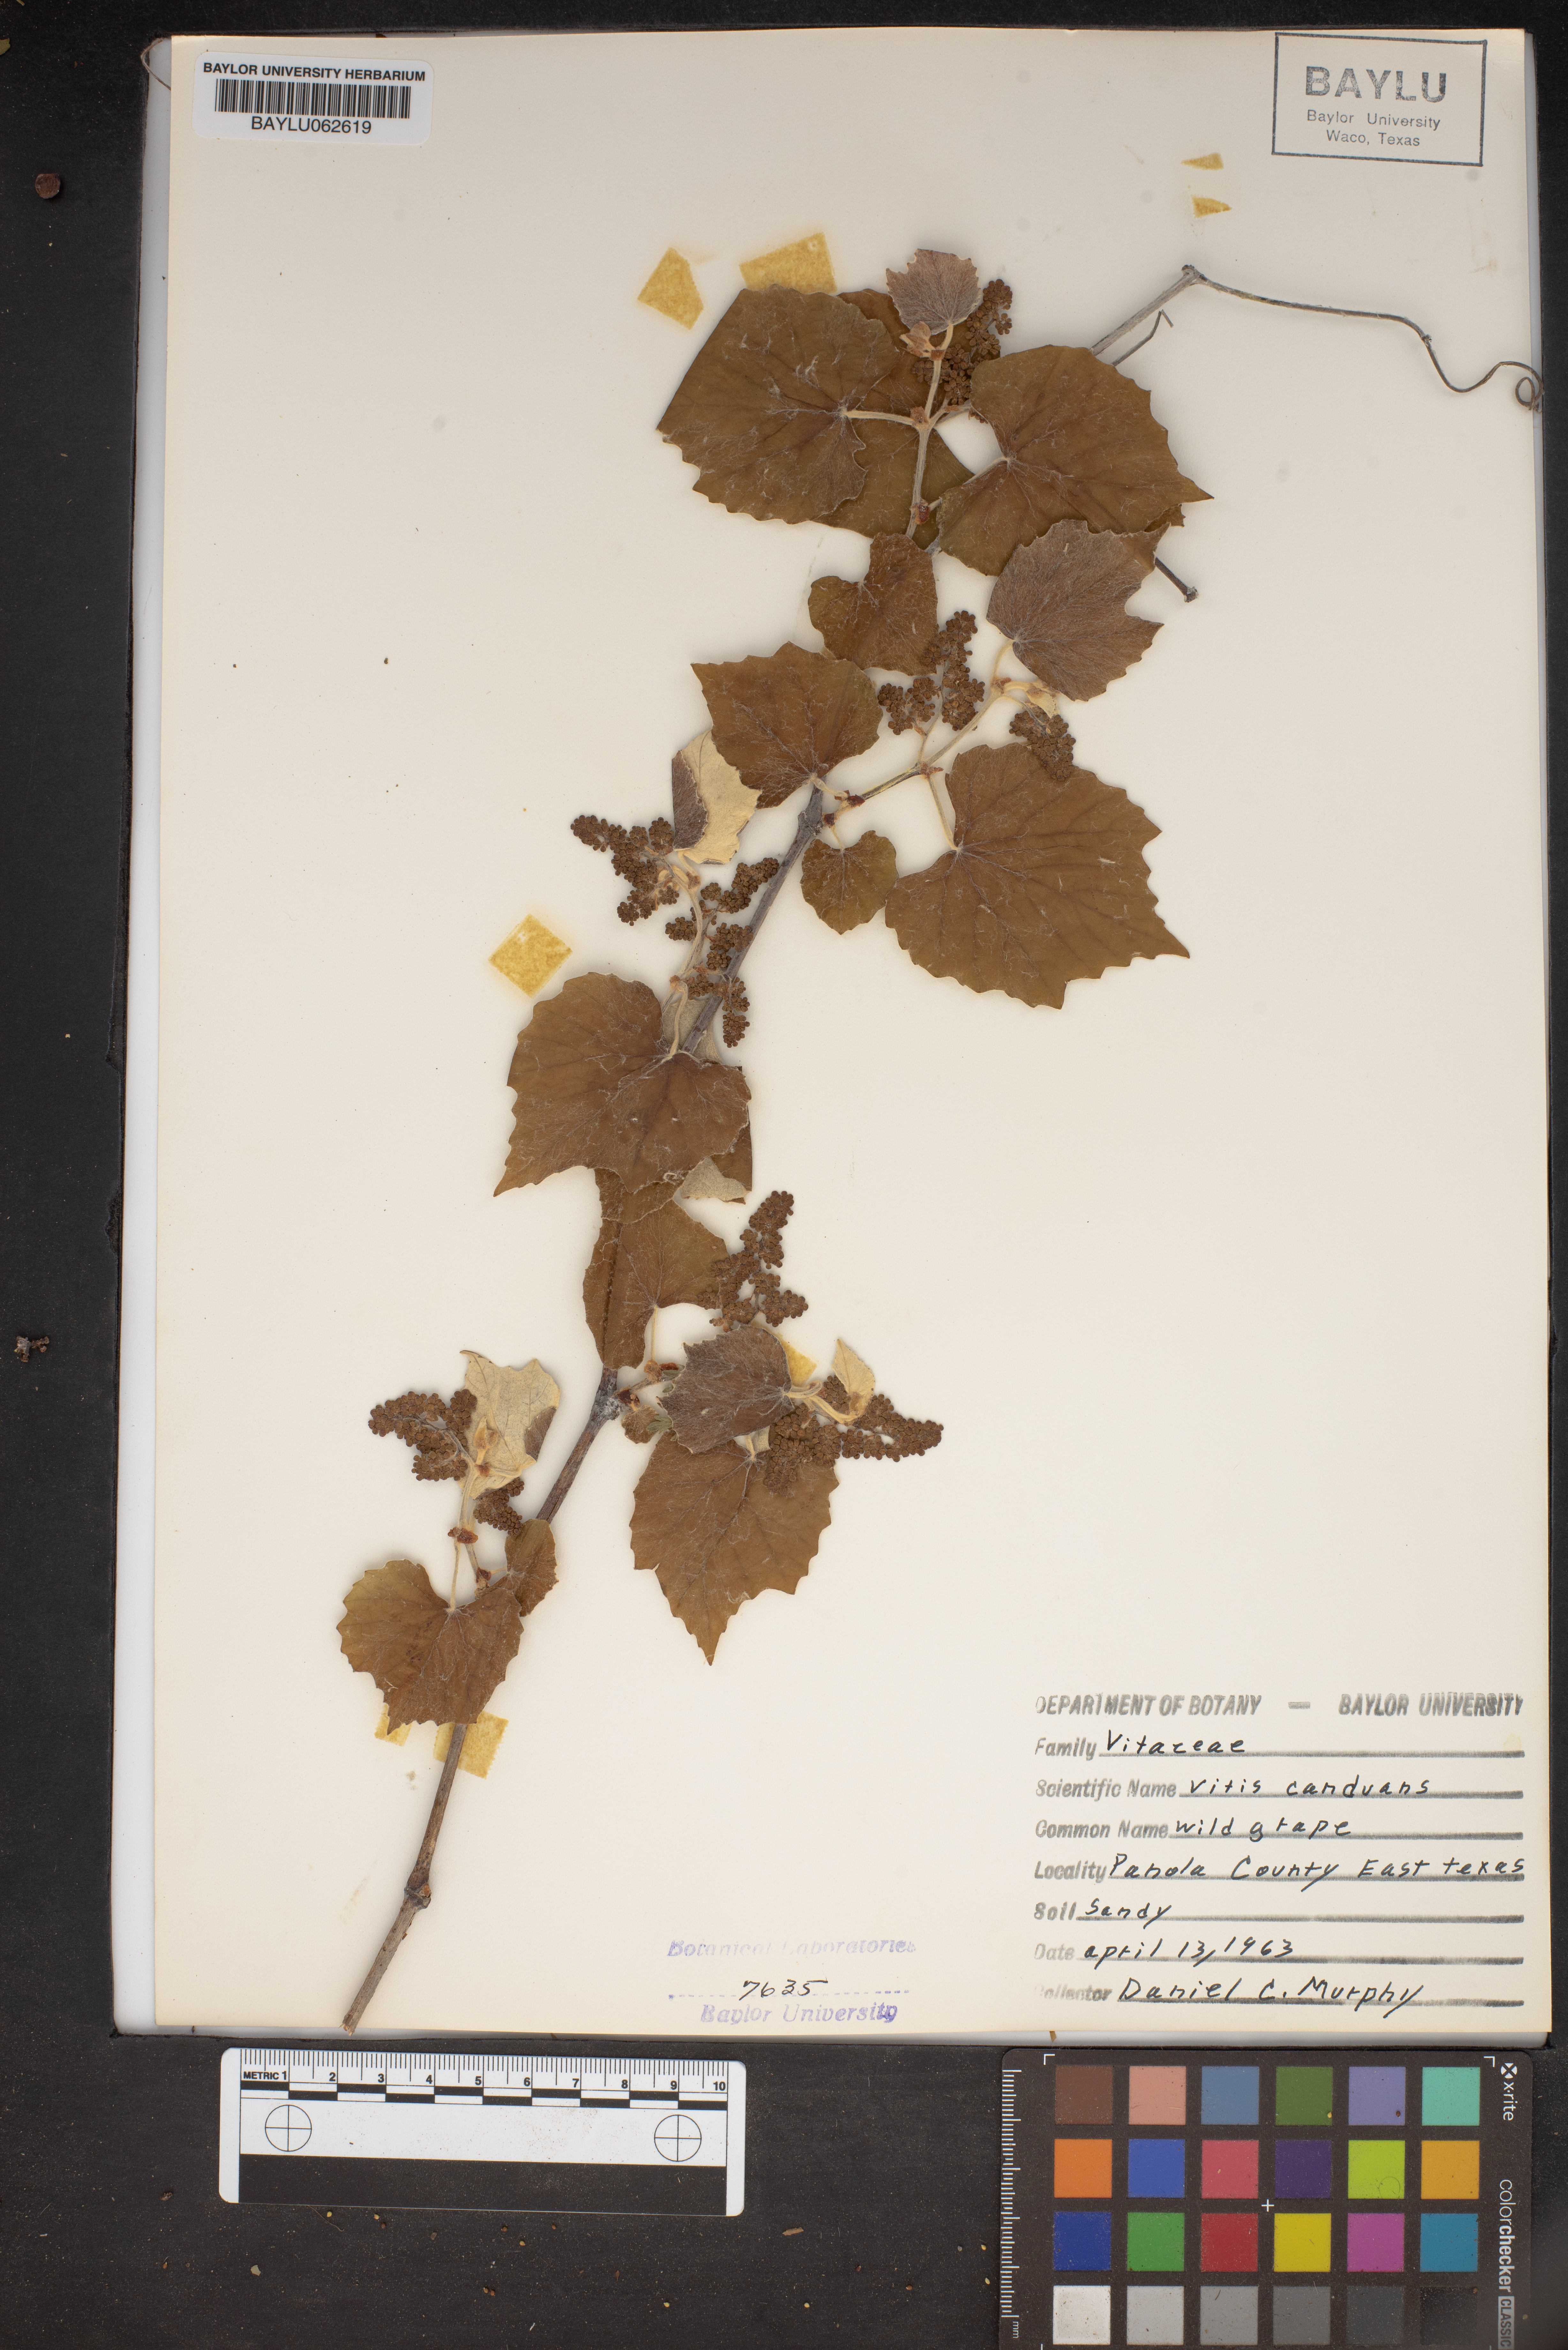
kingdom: Plantae
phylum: Tracheophyta
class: Magnoliopsida
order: Vitales
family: Vitaceae
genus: Vitis
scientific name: Vitis mustangensis
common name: Mustang grape
